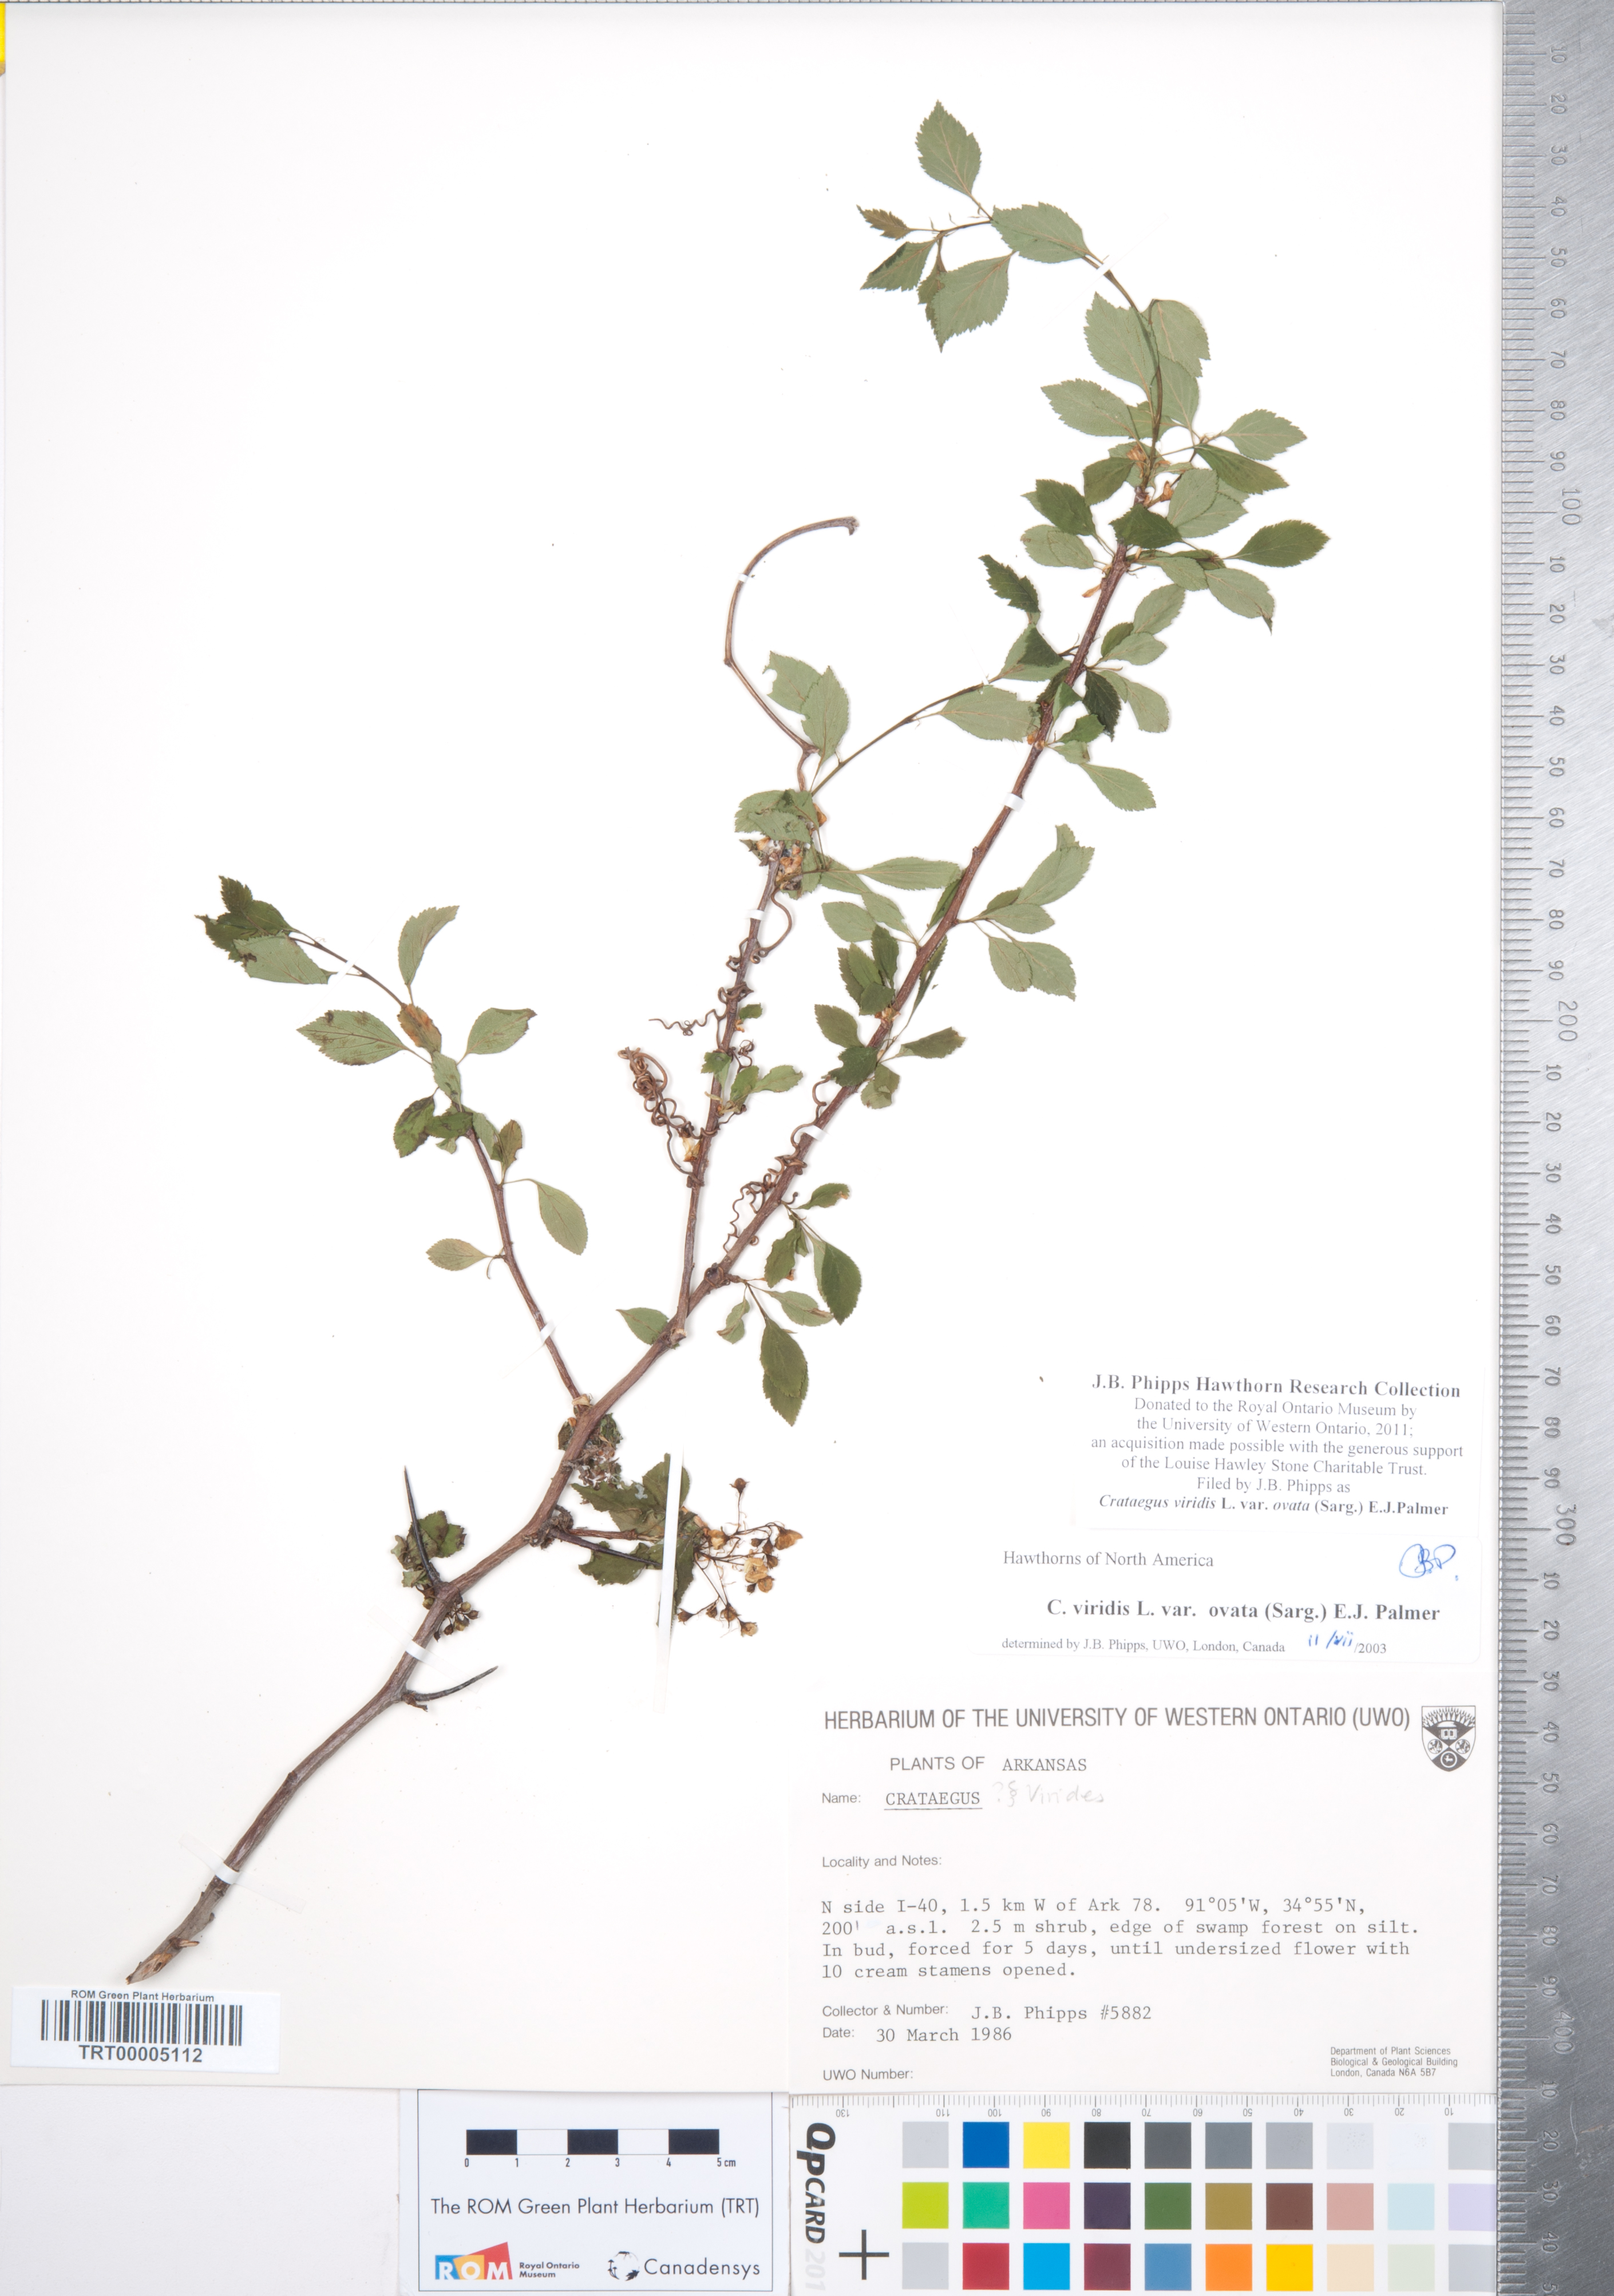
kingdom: Plantae
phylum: Tracheophyta
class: Magnoliopsida
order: Rosales
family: Rosaceae
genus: Crataegus
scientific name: Crataegus viridis
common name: Southernthorn
